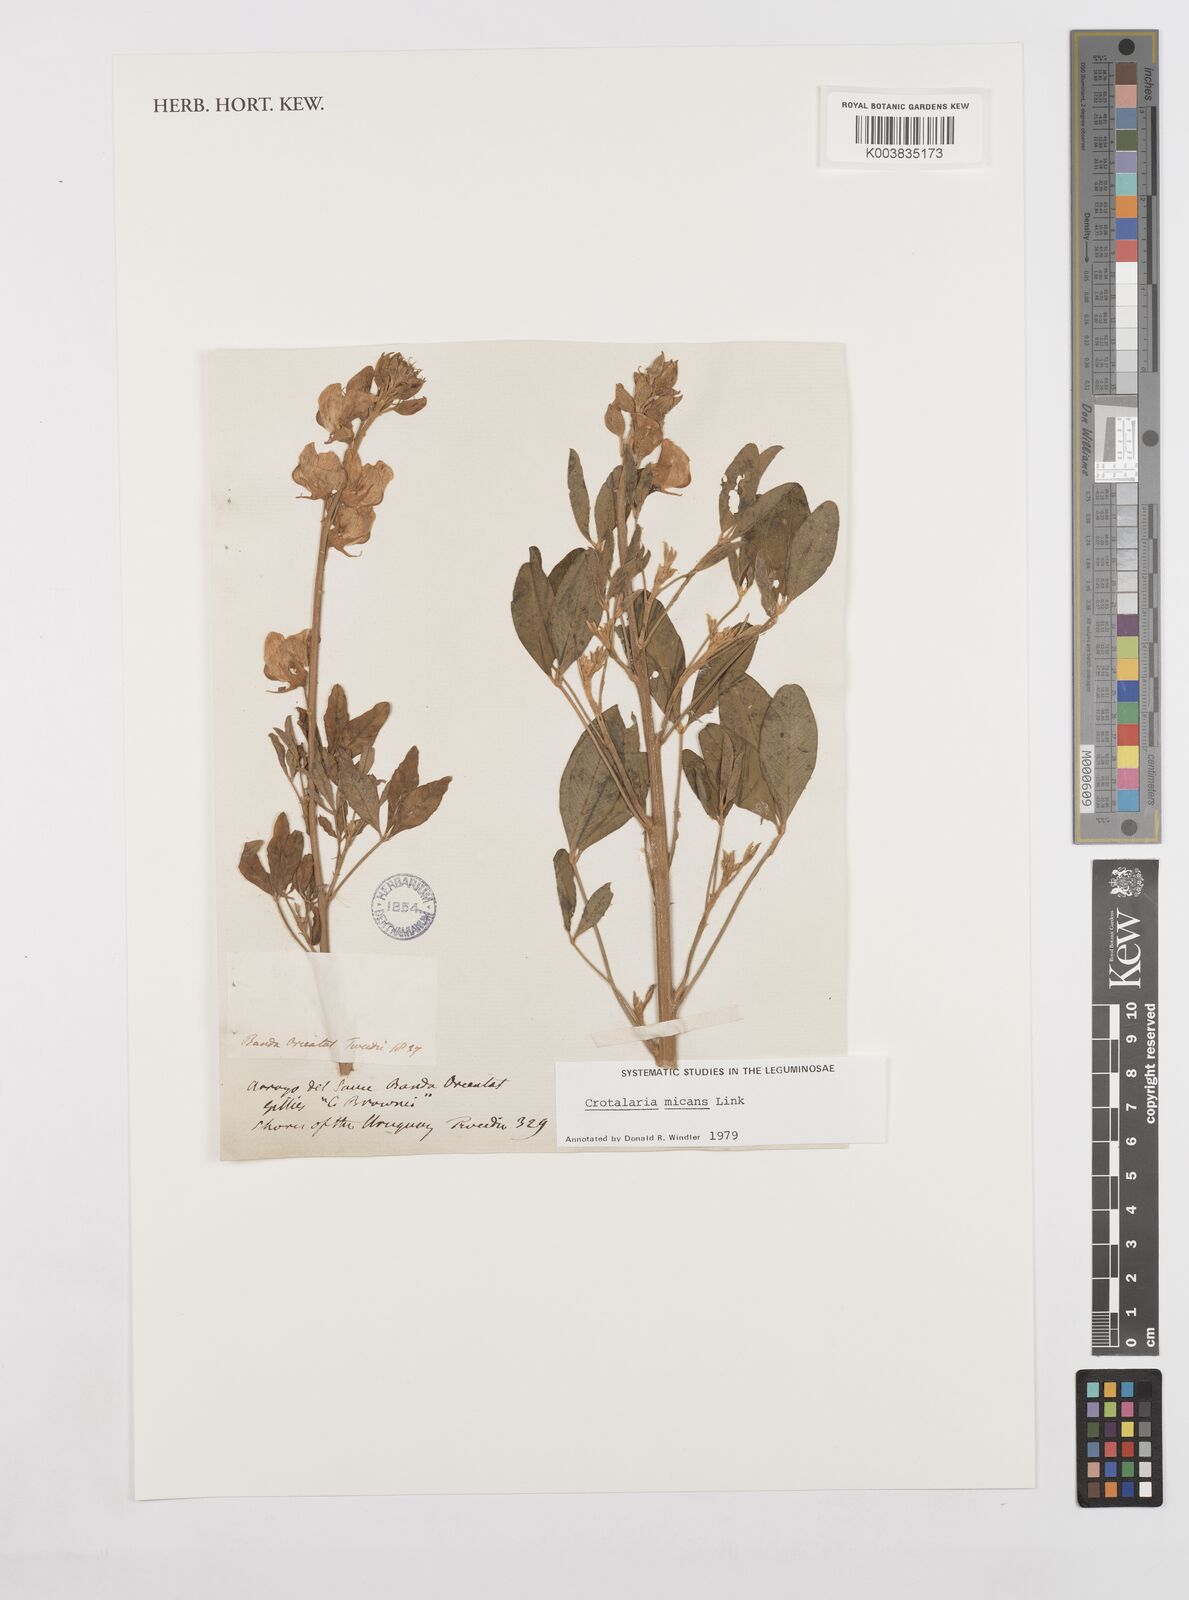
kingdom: Plantae
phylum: Tracheophyta
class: Magnoliopsida
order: Fabales
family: Fabaceae
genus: Crotalaria
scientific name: Crotalaria micans
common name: Caracas rattlebox
